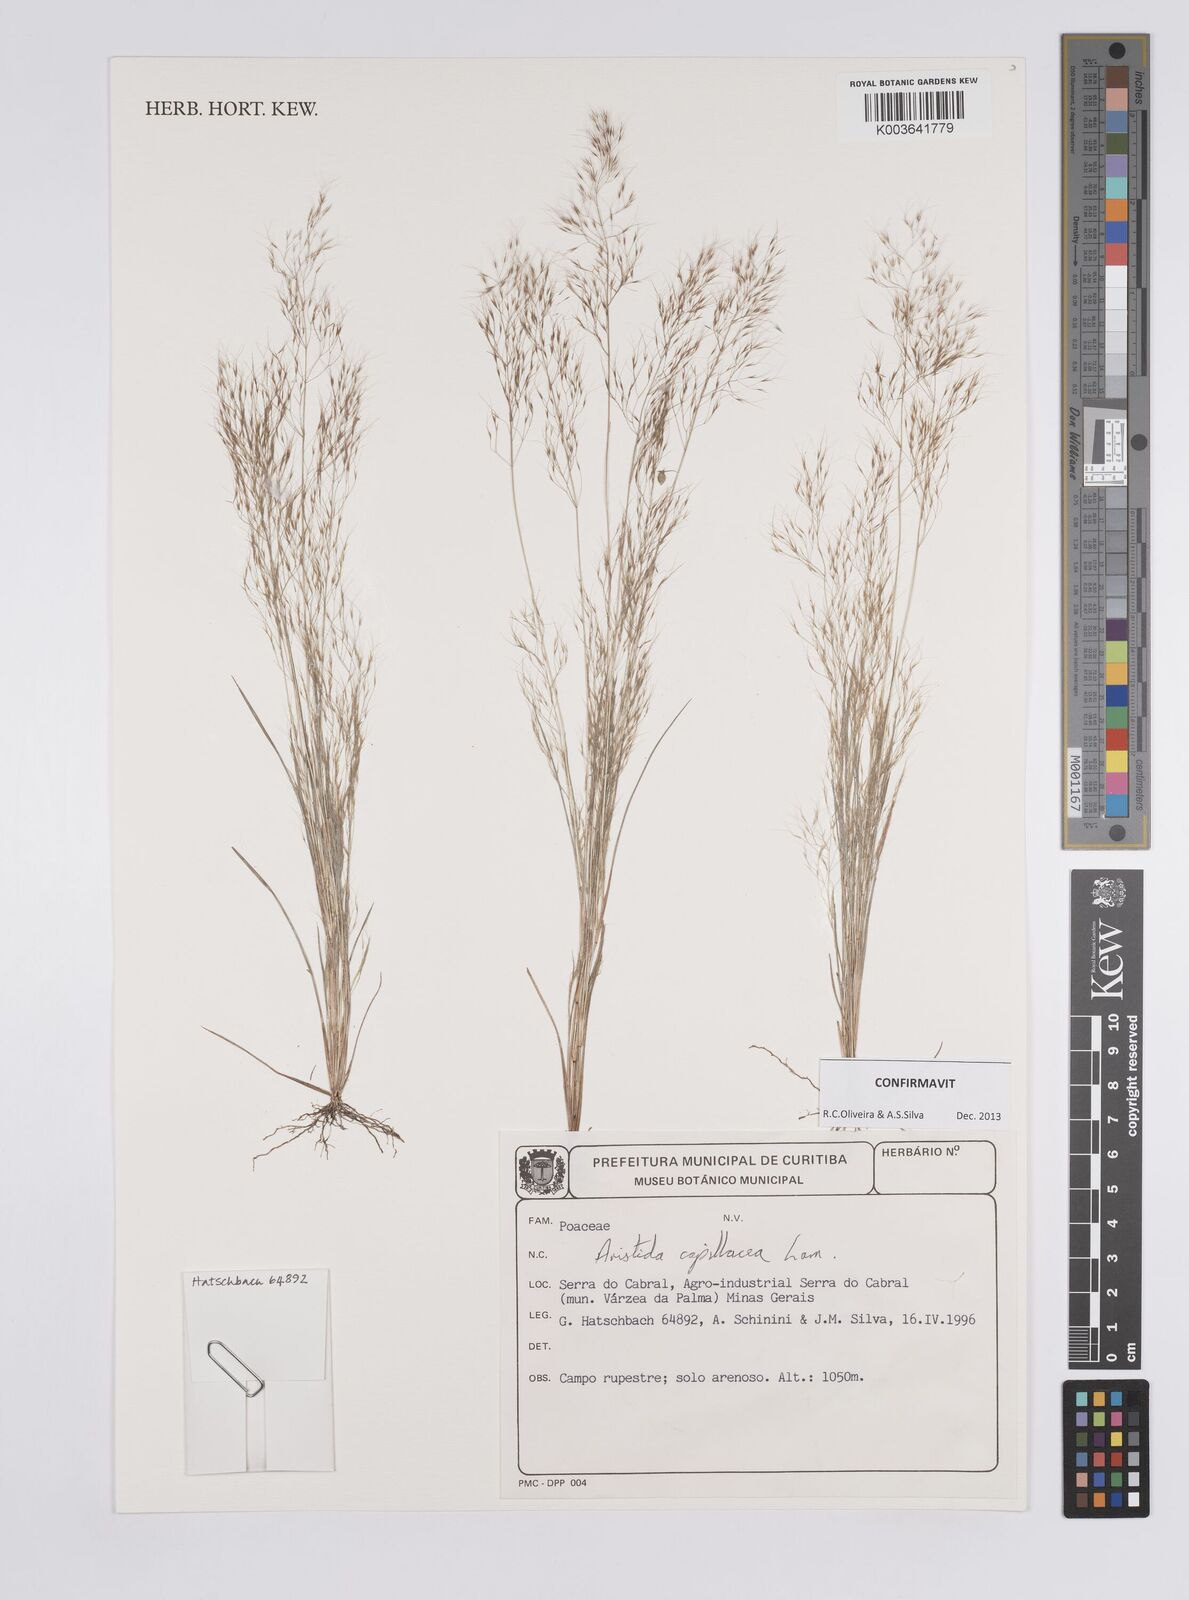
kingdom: Plantae
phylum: Tracheophyta
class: Liliopsida
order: Poales
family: Poaceae
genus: Aristida
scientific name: Aristida capillacea
